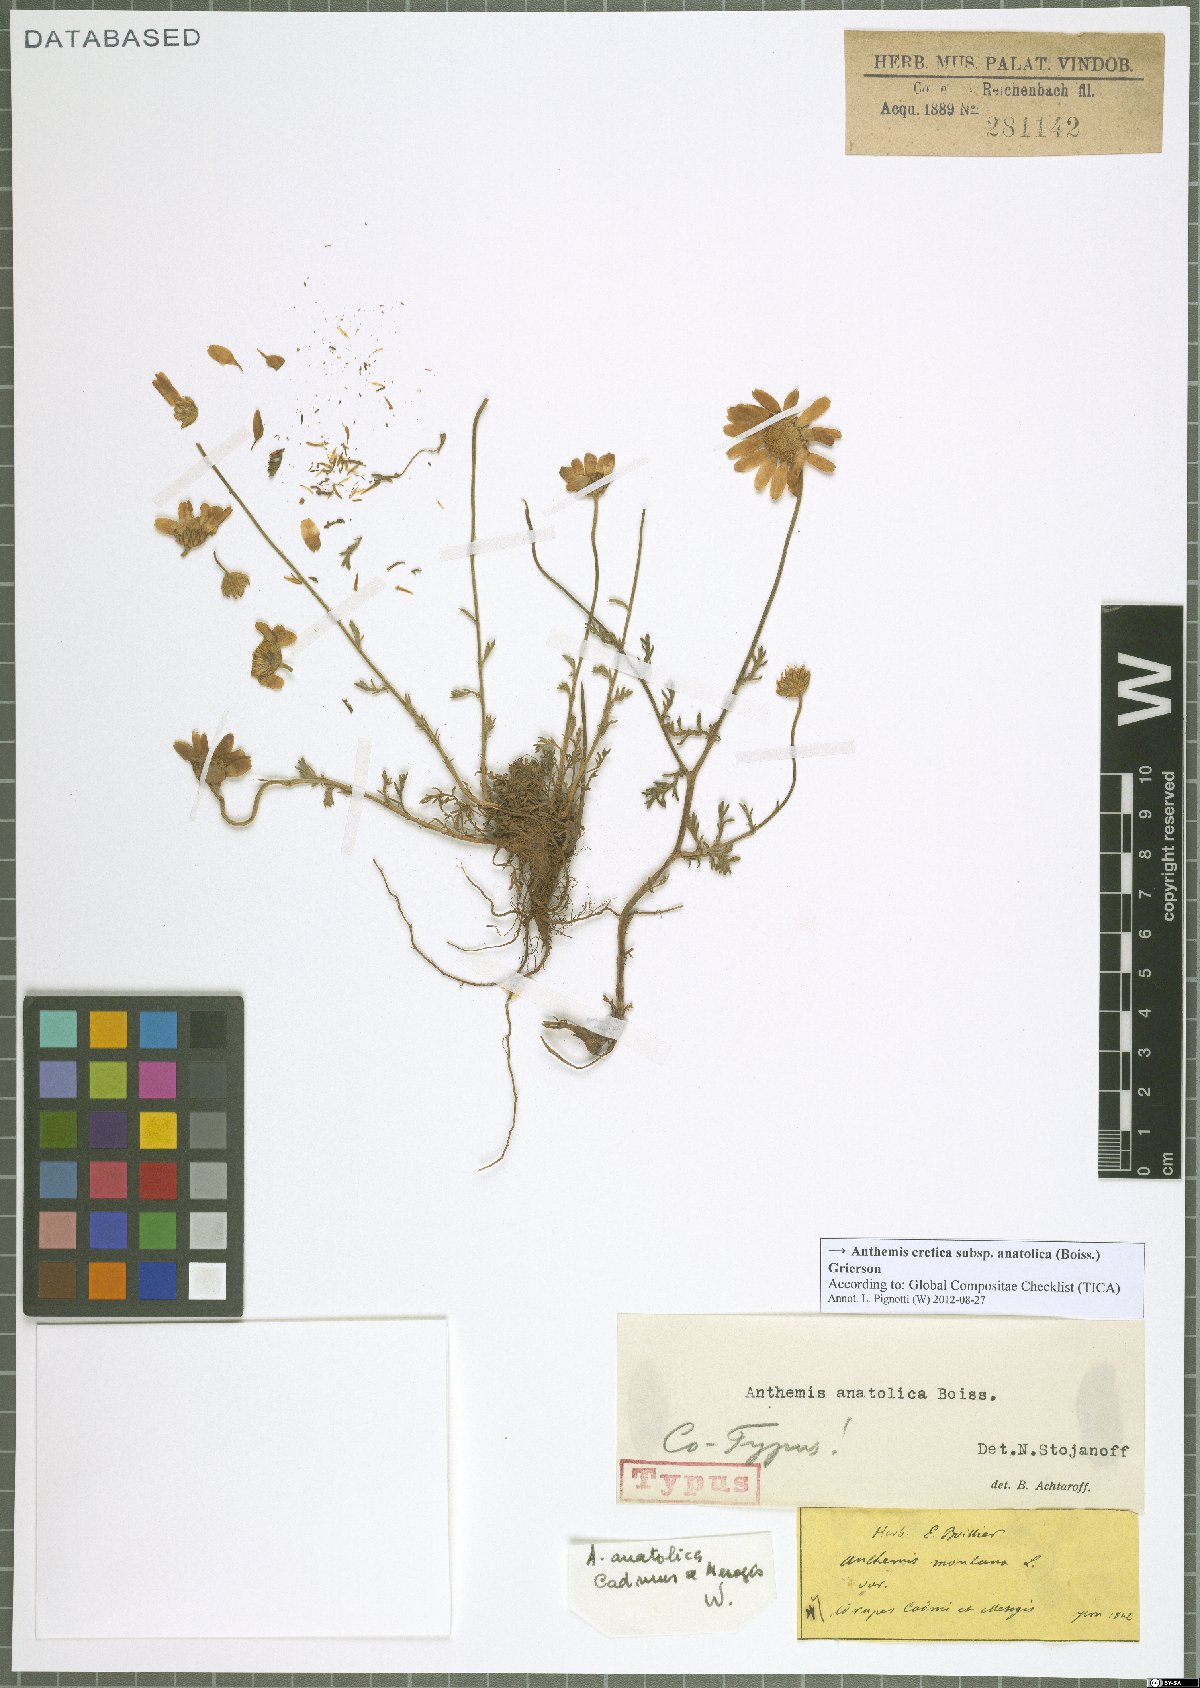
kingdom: Plantae
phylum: Tracheophyta
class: Magnoliopsida
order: Asterales
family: Asteraceae
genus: Anthemis
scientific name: Anthemis cretica
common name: Mountain dog-daisy
